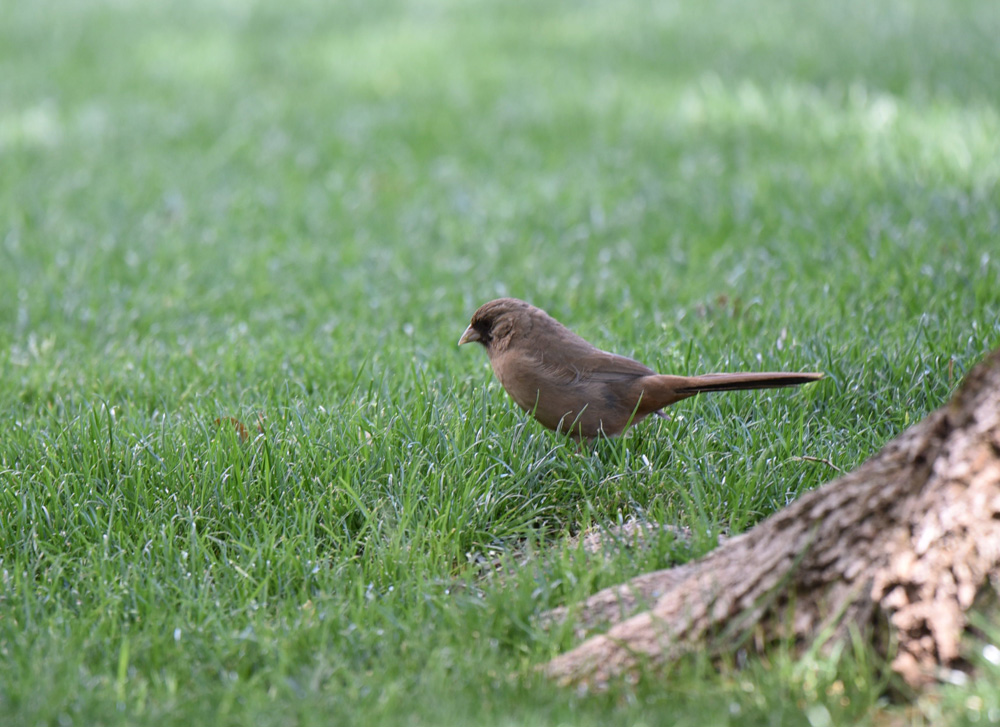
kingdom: Animalia
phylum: Chordata
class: Aves
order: Passeriformes
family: Passerellidae
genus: Melozone
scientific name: Melozone aberti
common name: Abert's towhee
